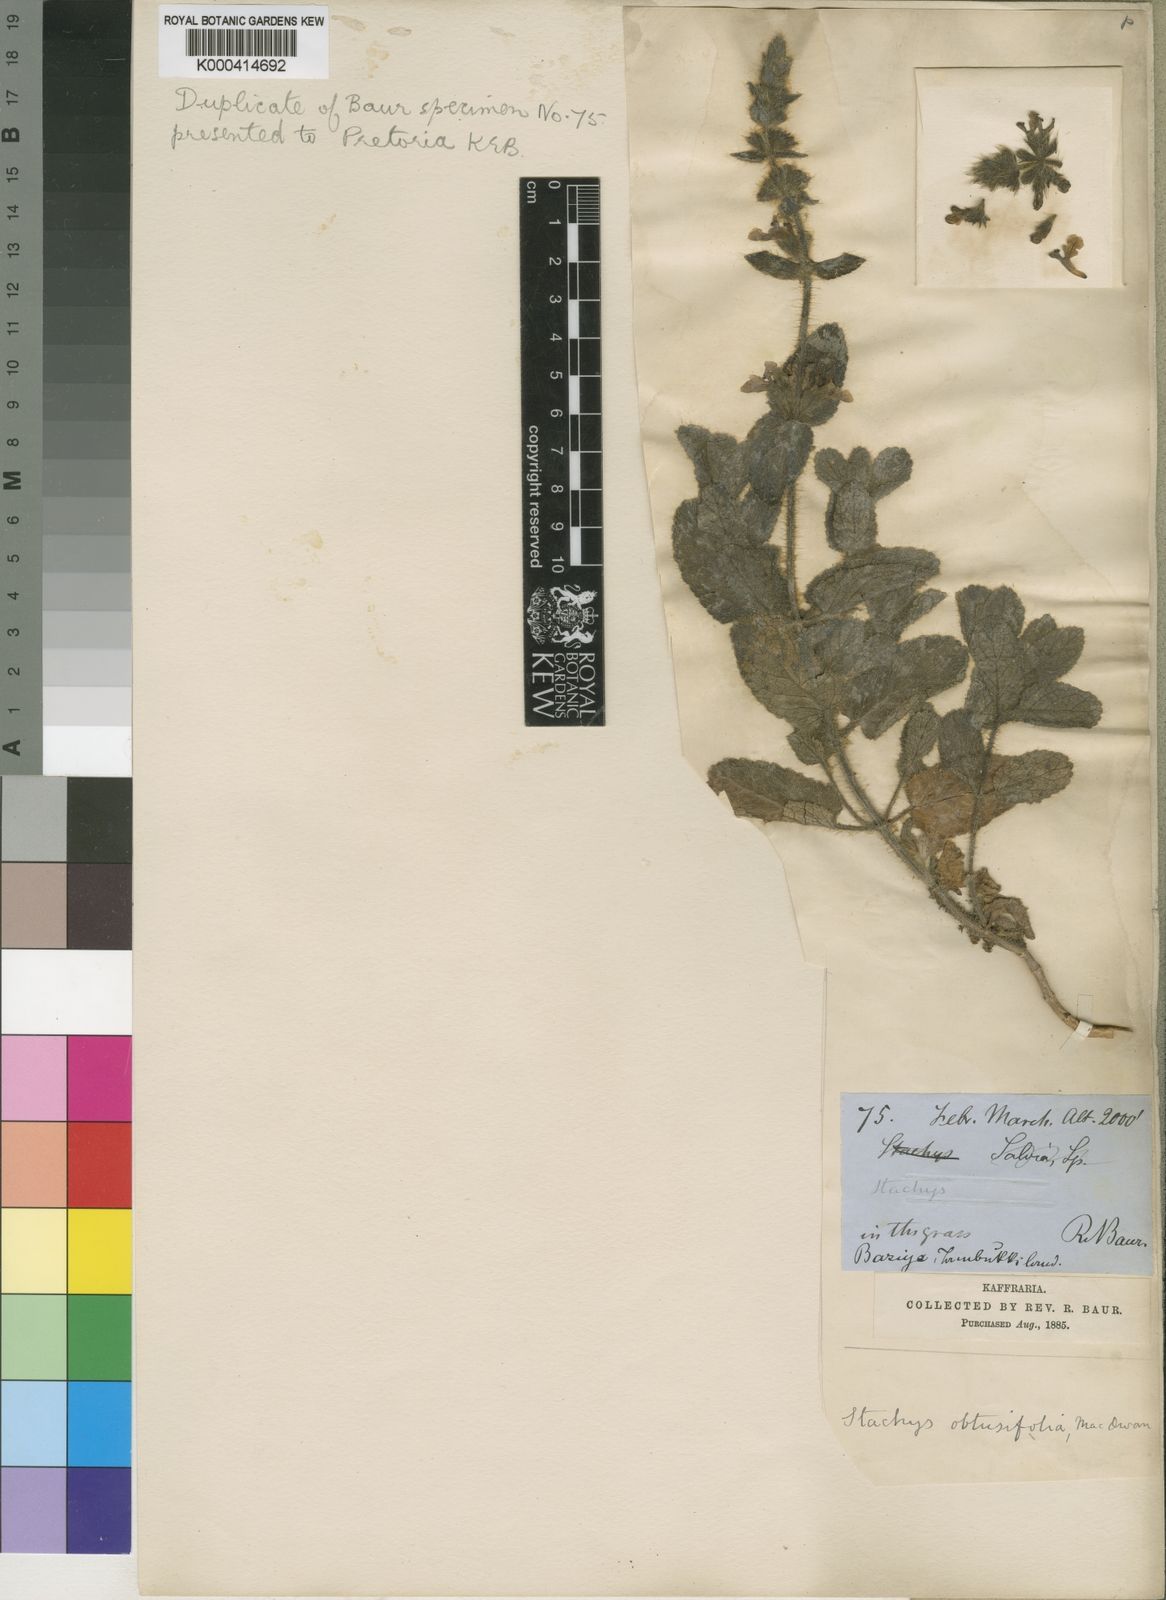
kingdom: Plantae
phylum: Tracheophyta
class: Magnoliopsida
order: Lamiales
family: Lamiaceae
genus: Stachys
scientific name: Stachys obtusifolia
